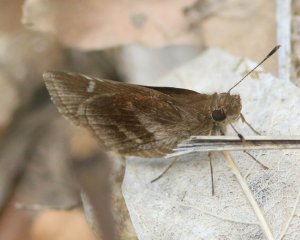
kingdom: Animalia
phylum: Arthropoda
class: Insecta
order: Lepidoptera
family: Hesperiidae
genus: Lerema
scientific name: Lerema accius
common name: Clouded Skipper
